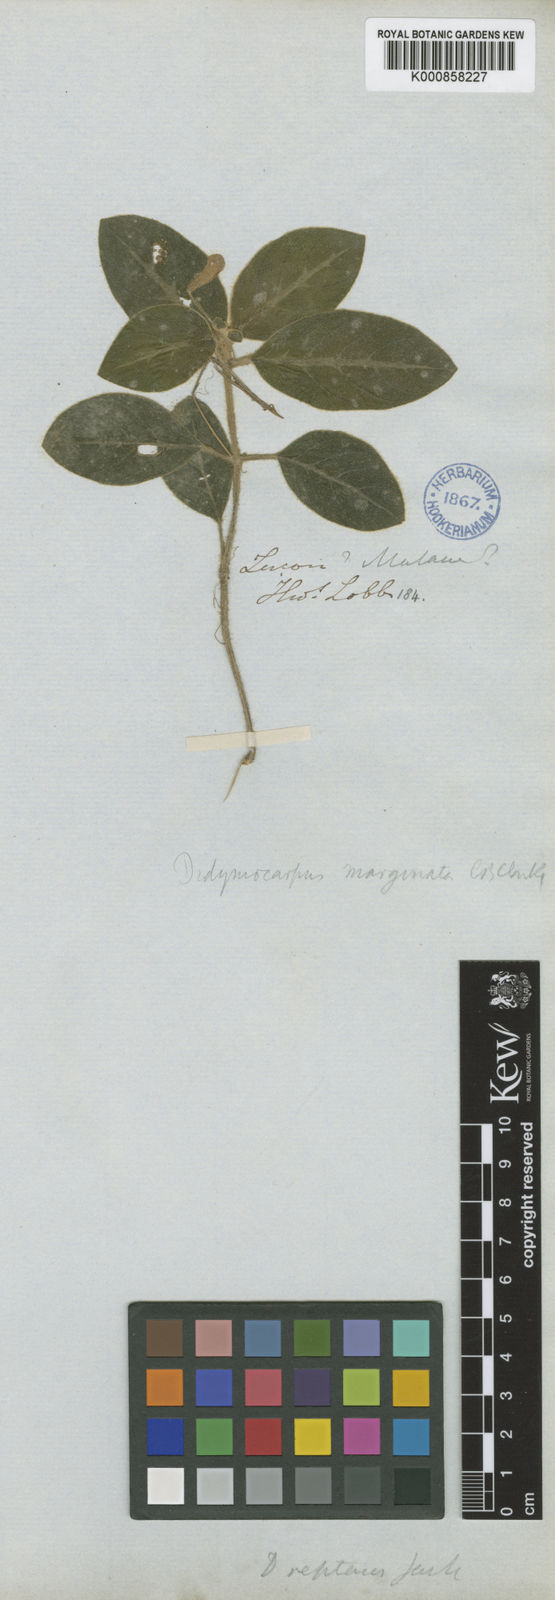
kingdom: Plantae
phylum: Tracheophyta
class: Magnoliopsida
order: Lamiales
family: Gesneriaceae
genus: Codonoboea
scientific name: Codonoboea marginata
